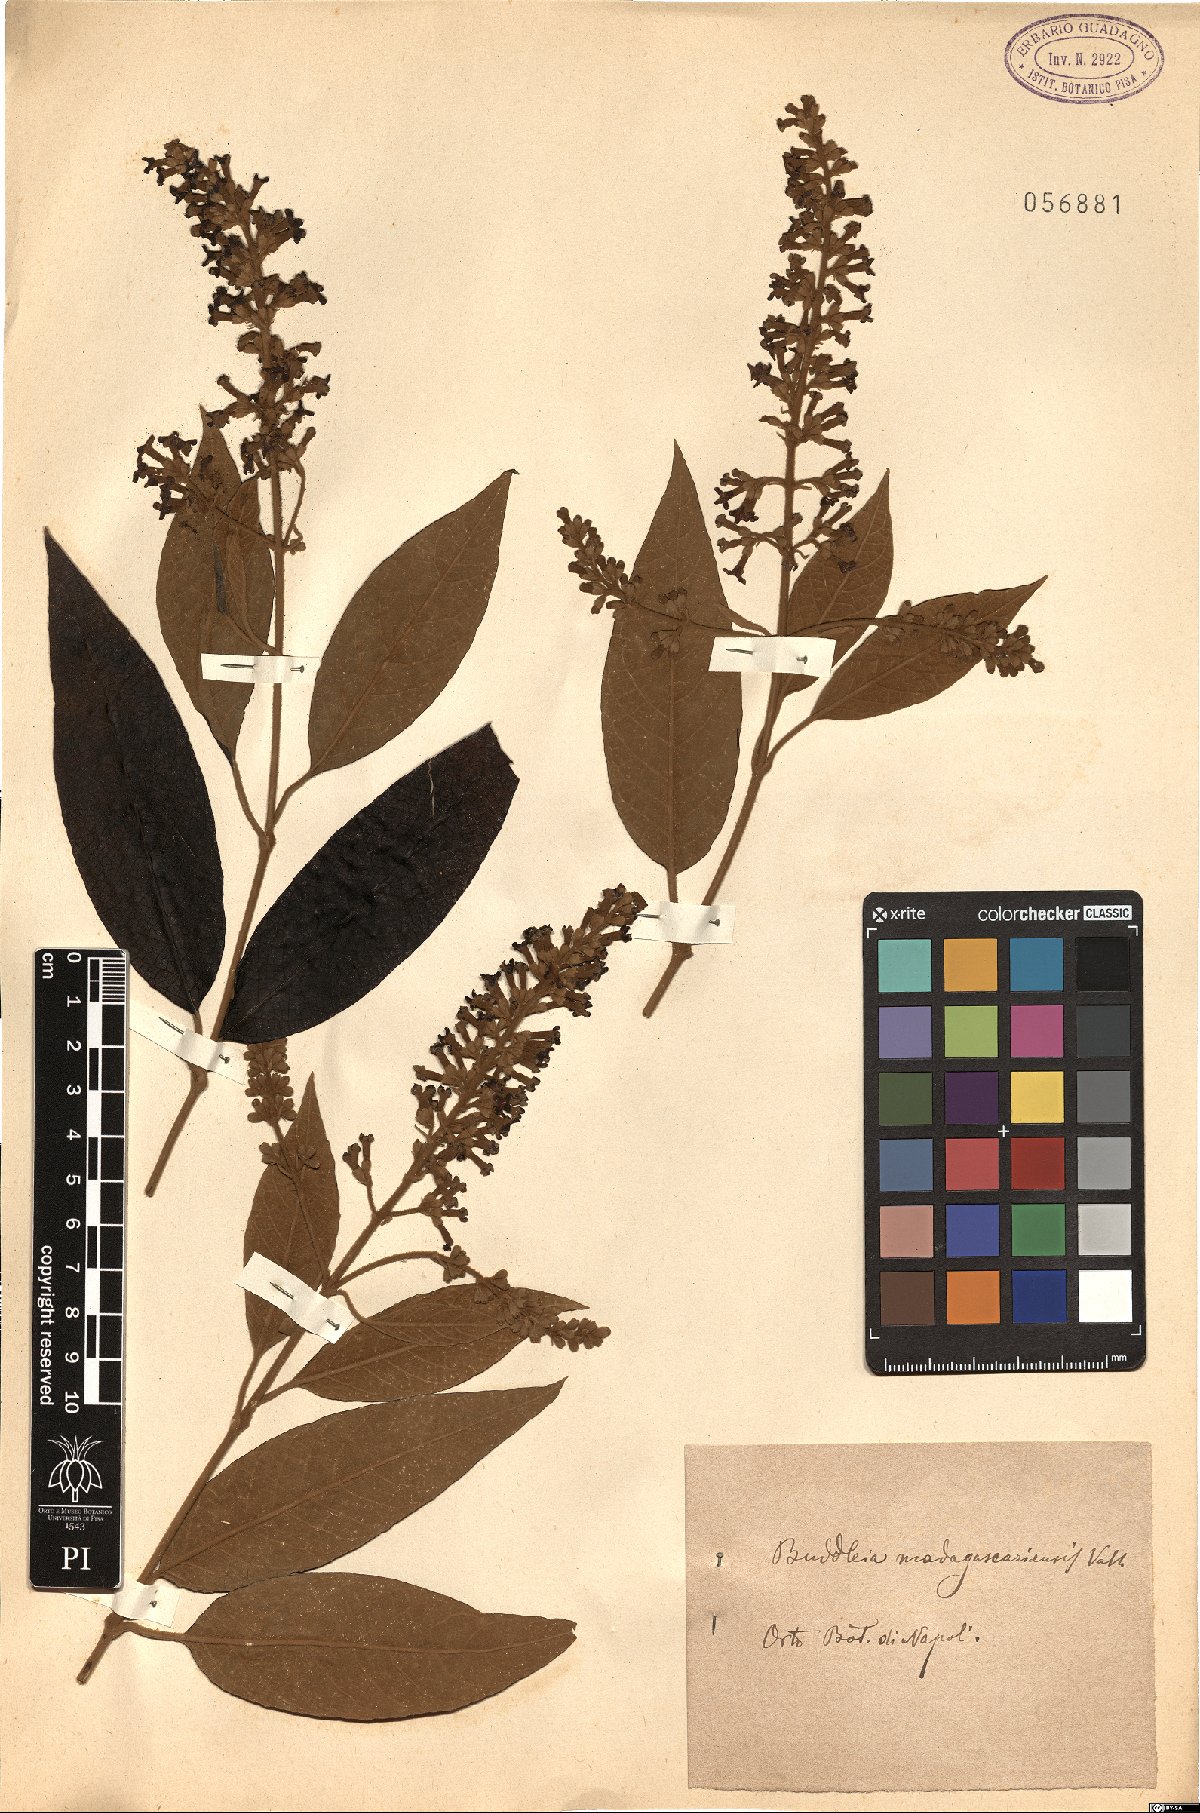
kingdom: Plantae
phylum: Tracheophyta
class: Magnoliopsida
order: Lamiales
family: Scrophulariaceae
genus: Buddleja
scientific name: Buddleja madagascariensis
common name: Smokebush
